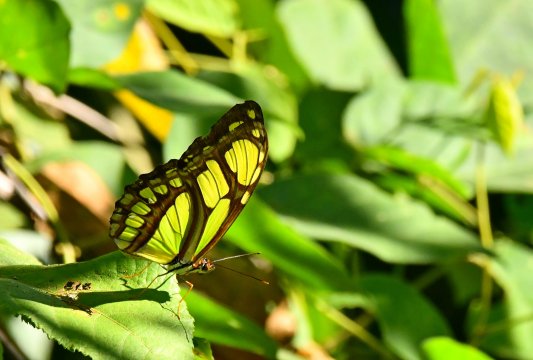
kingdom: Animalia
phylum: Arthropoda
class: Insecta
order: Lepidoptera
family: Nymphalidae
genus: Philaethria
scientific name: Philaethria dido
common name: Northern Green Longwing
